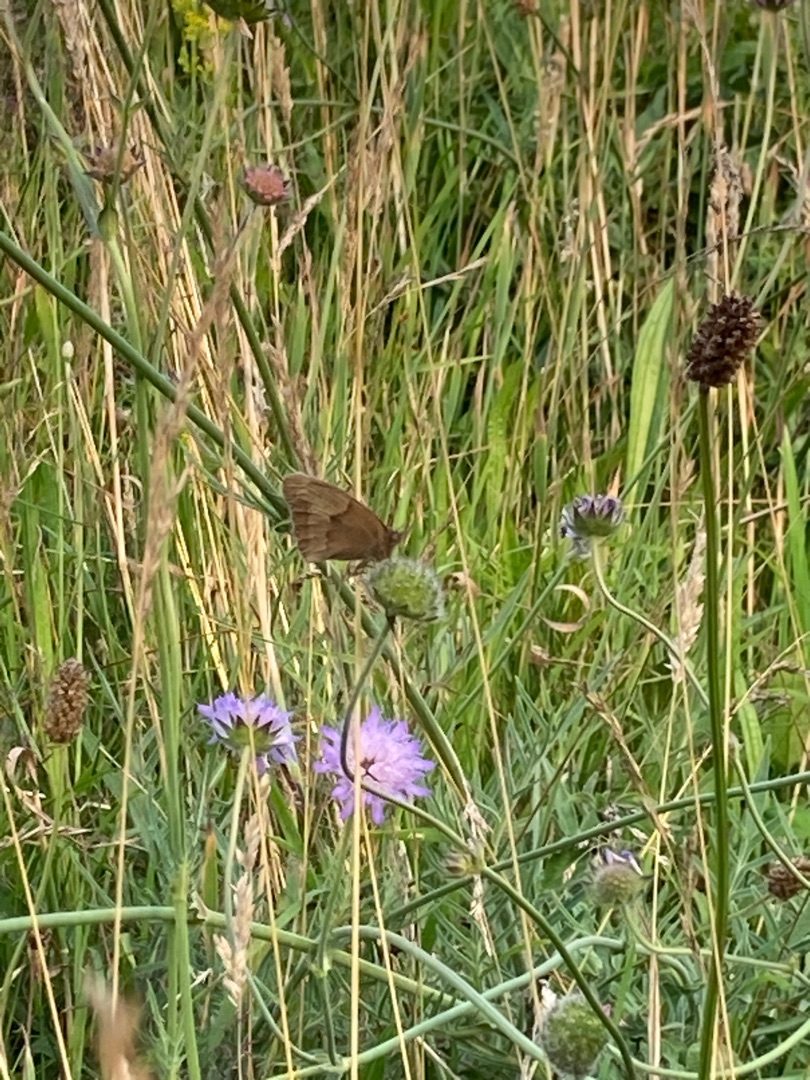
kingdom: Animalia
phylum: Arthropoda
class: Insecta
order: Lepidoptera
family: Nymphalidae
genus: Maniola
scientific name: Maniola jurtina
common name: Græsrandøje
